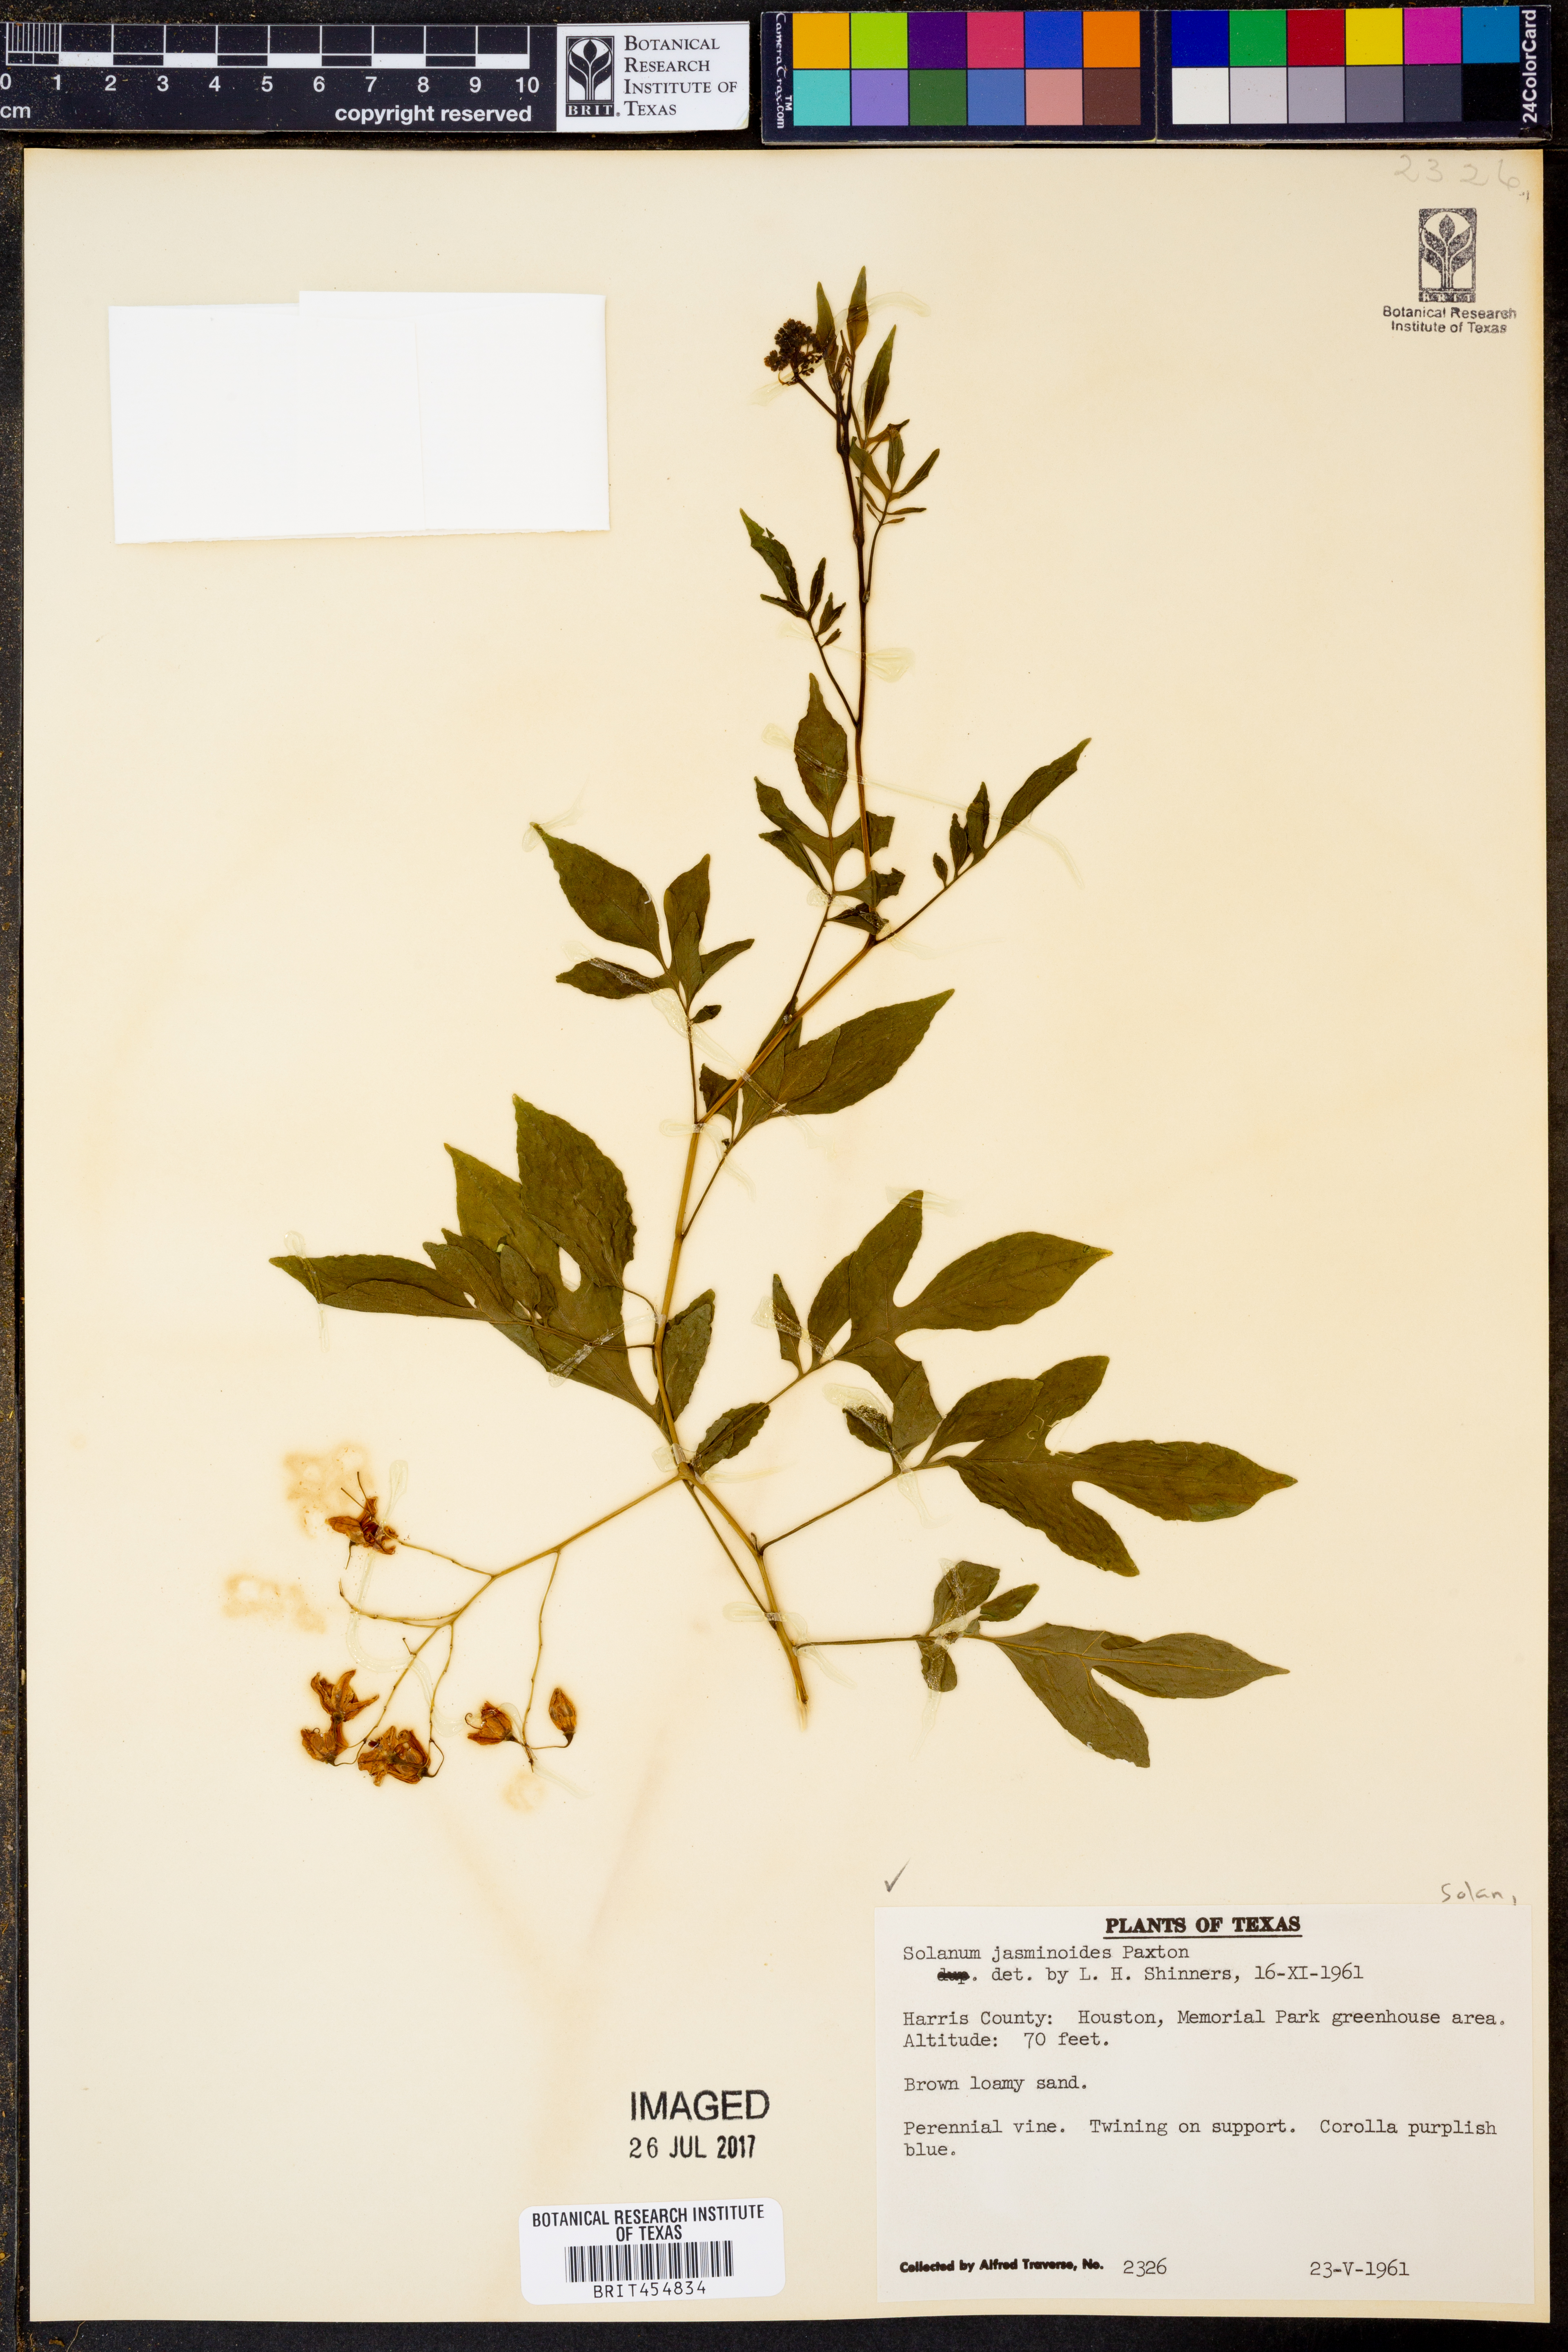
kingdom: Plantae
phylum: Tracheophyta
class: Magnoliopsida
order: Solanales
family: Solanaceae
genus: Solanum
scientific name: Solanum laxum
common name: Nightshade
